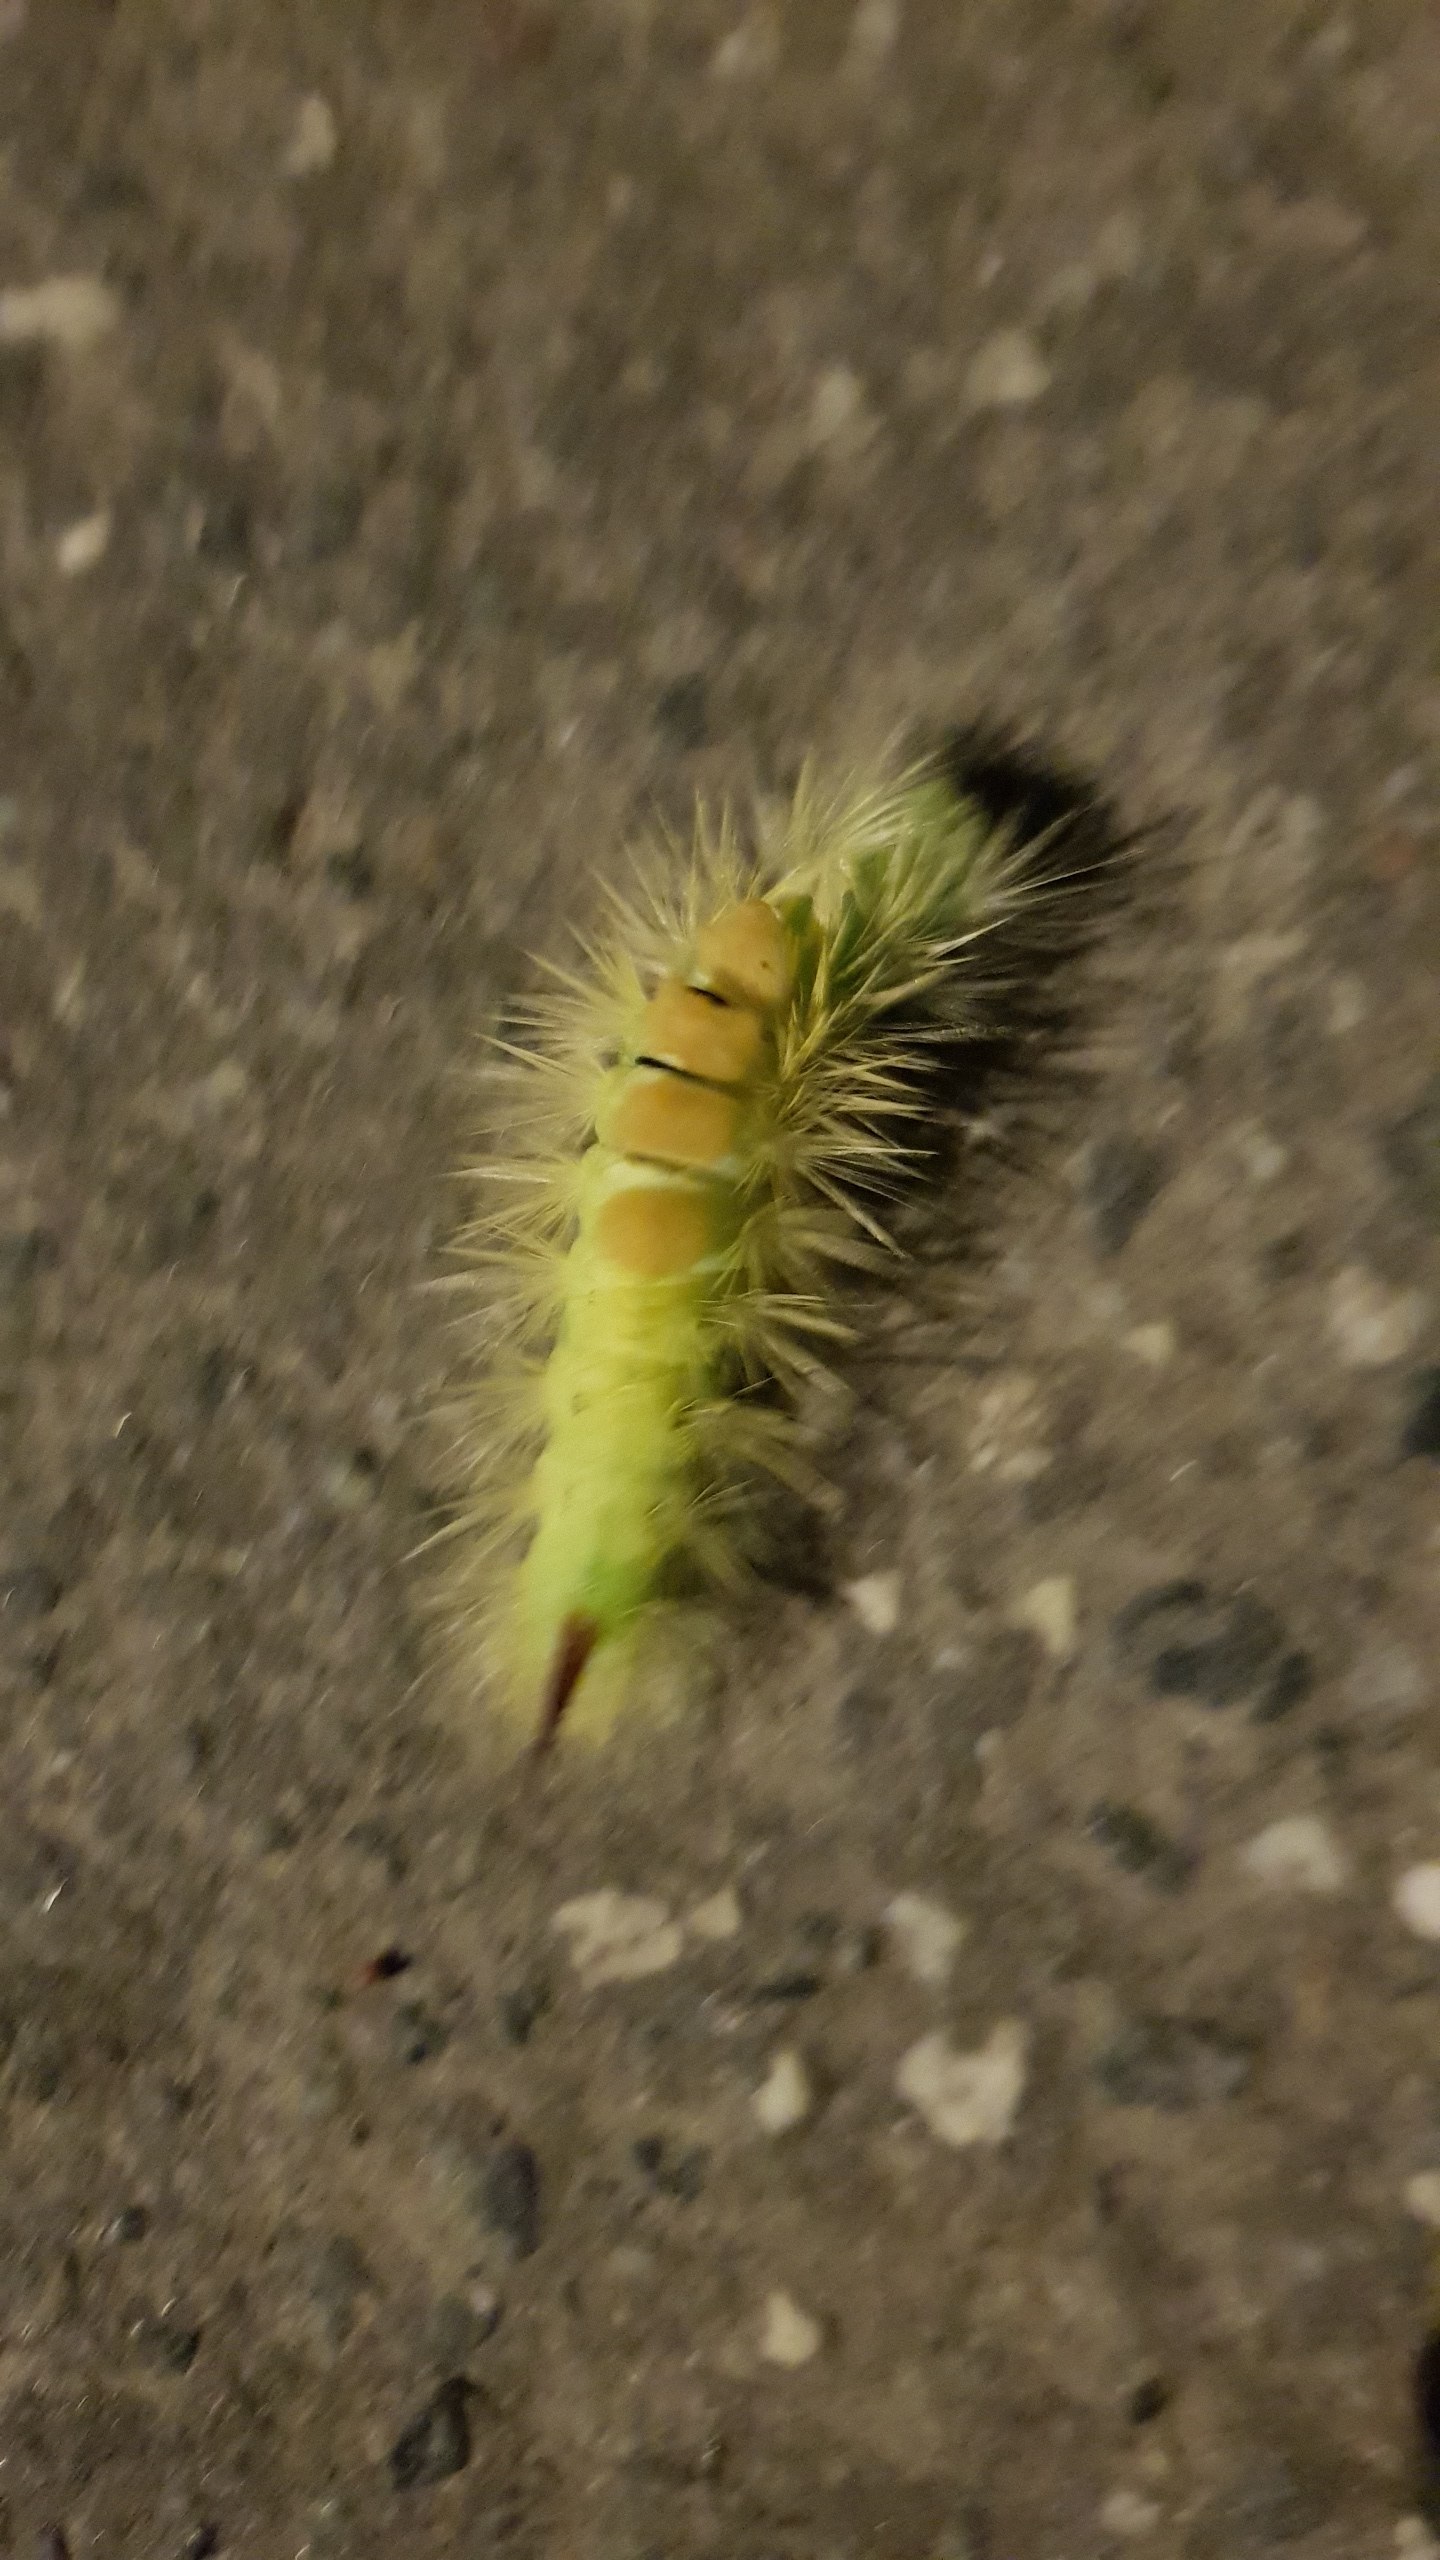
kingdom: Animalia
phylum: Arthropoda
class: Insecta
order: Lepidoptera
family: Erebidae
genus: Calliteara
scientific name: Calliteara pudibunda
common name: Bøgenonne
